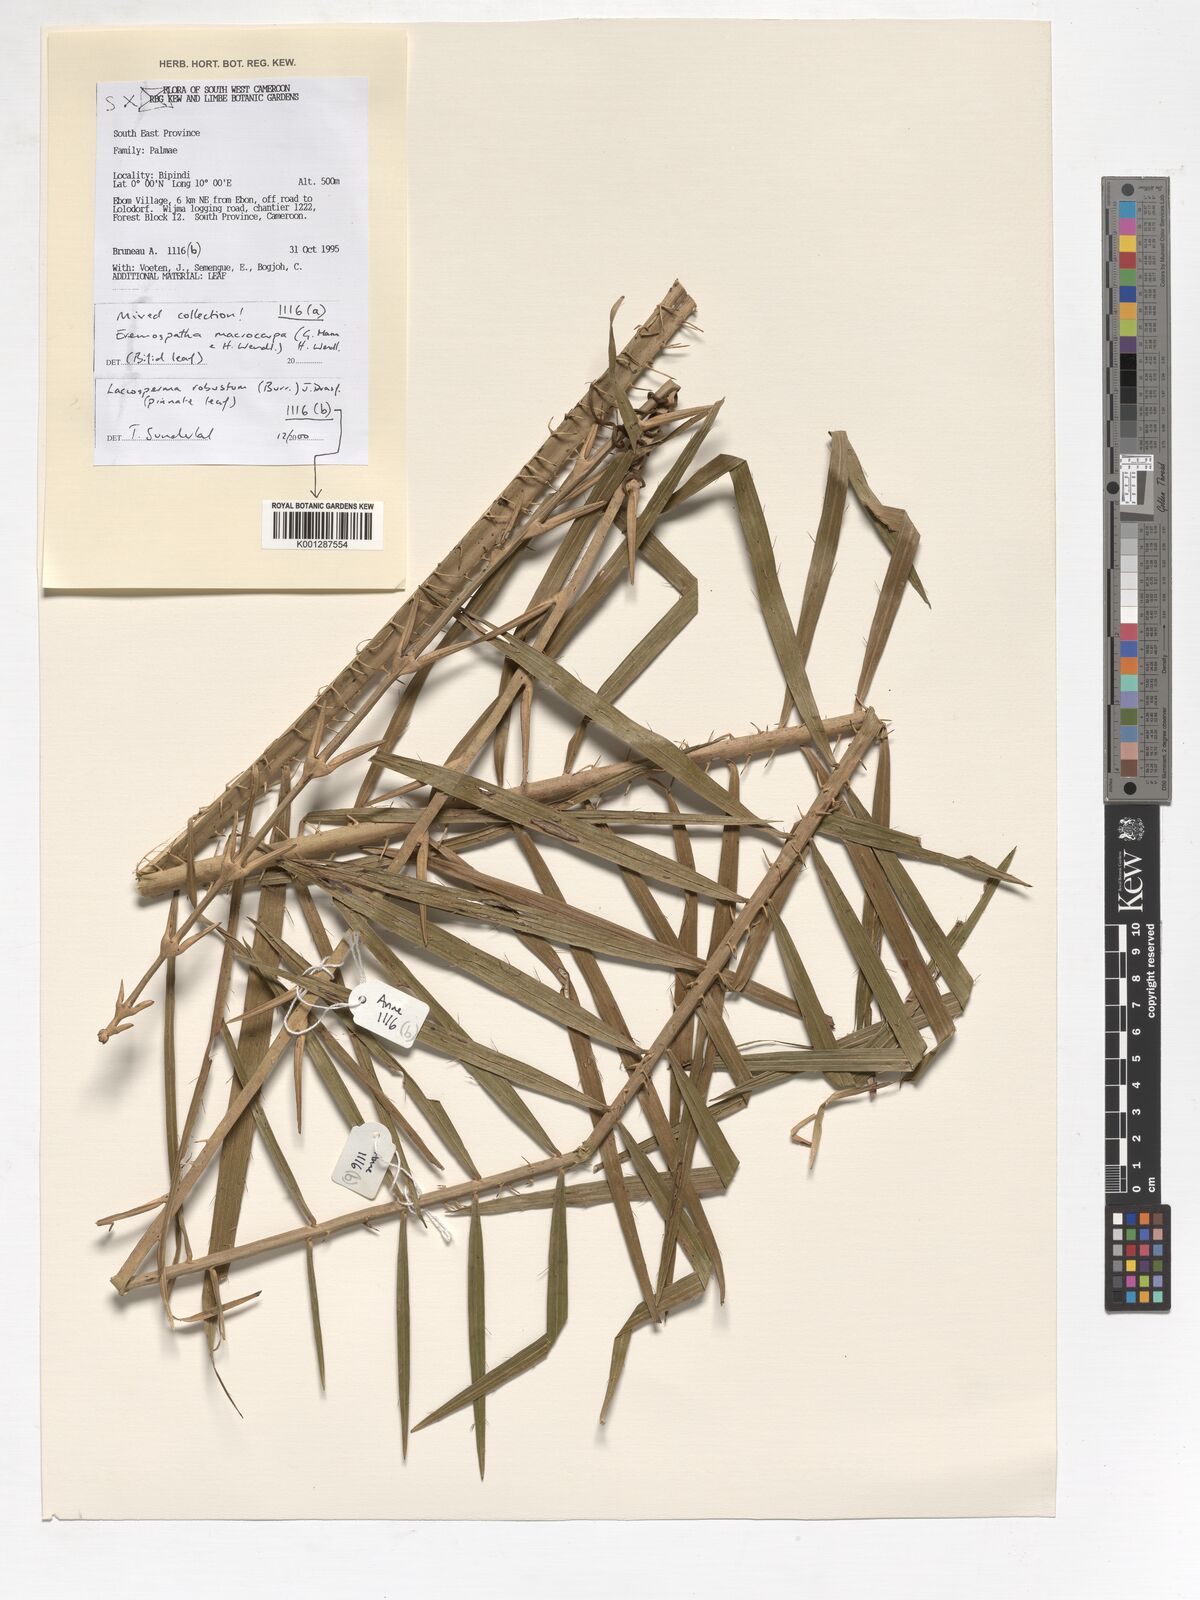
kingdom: Plantae
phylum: Tracheophyta
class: Liliopsida
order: Arecales
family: Arecaceae
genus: Laccosperma
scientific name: Laccosperma robustum
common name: Rattan
